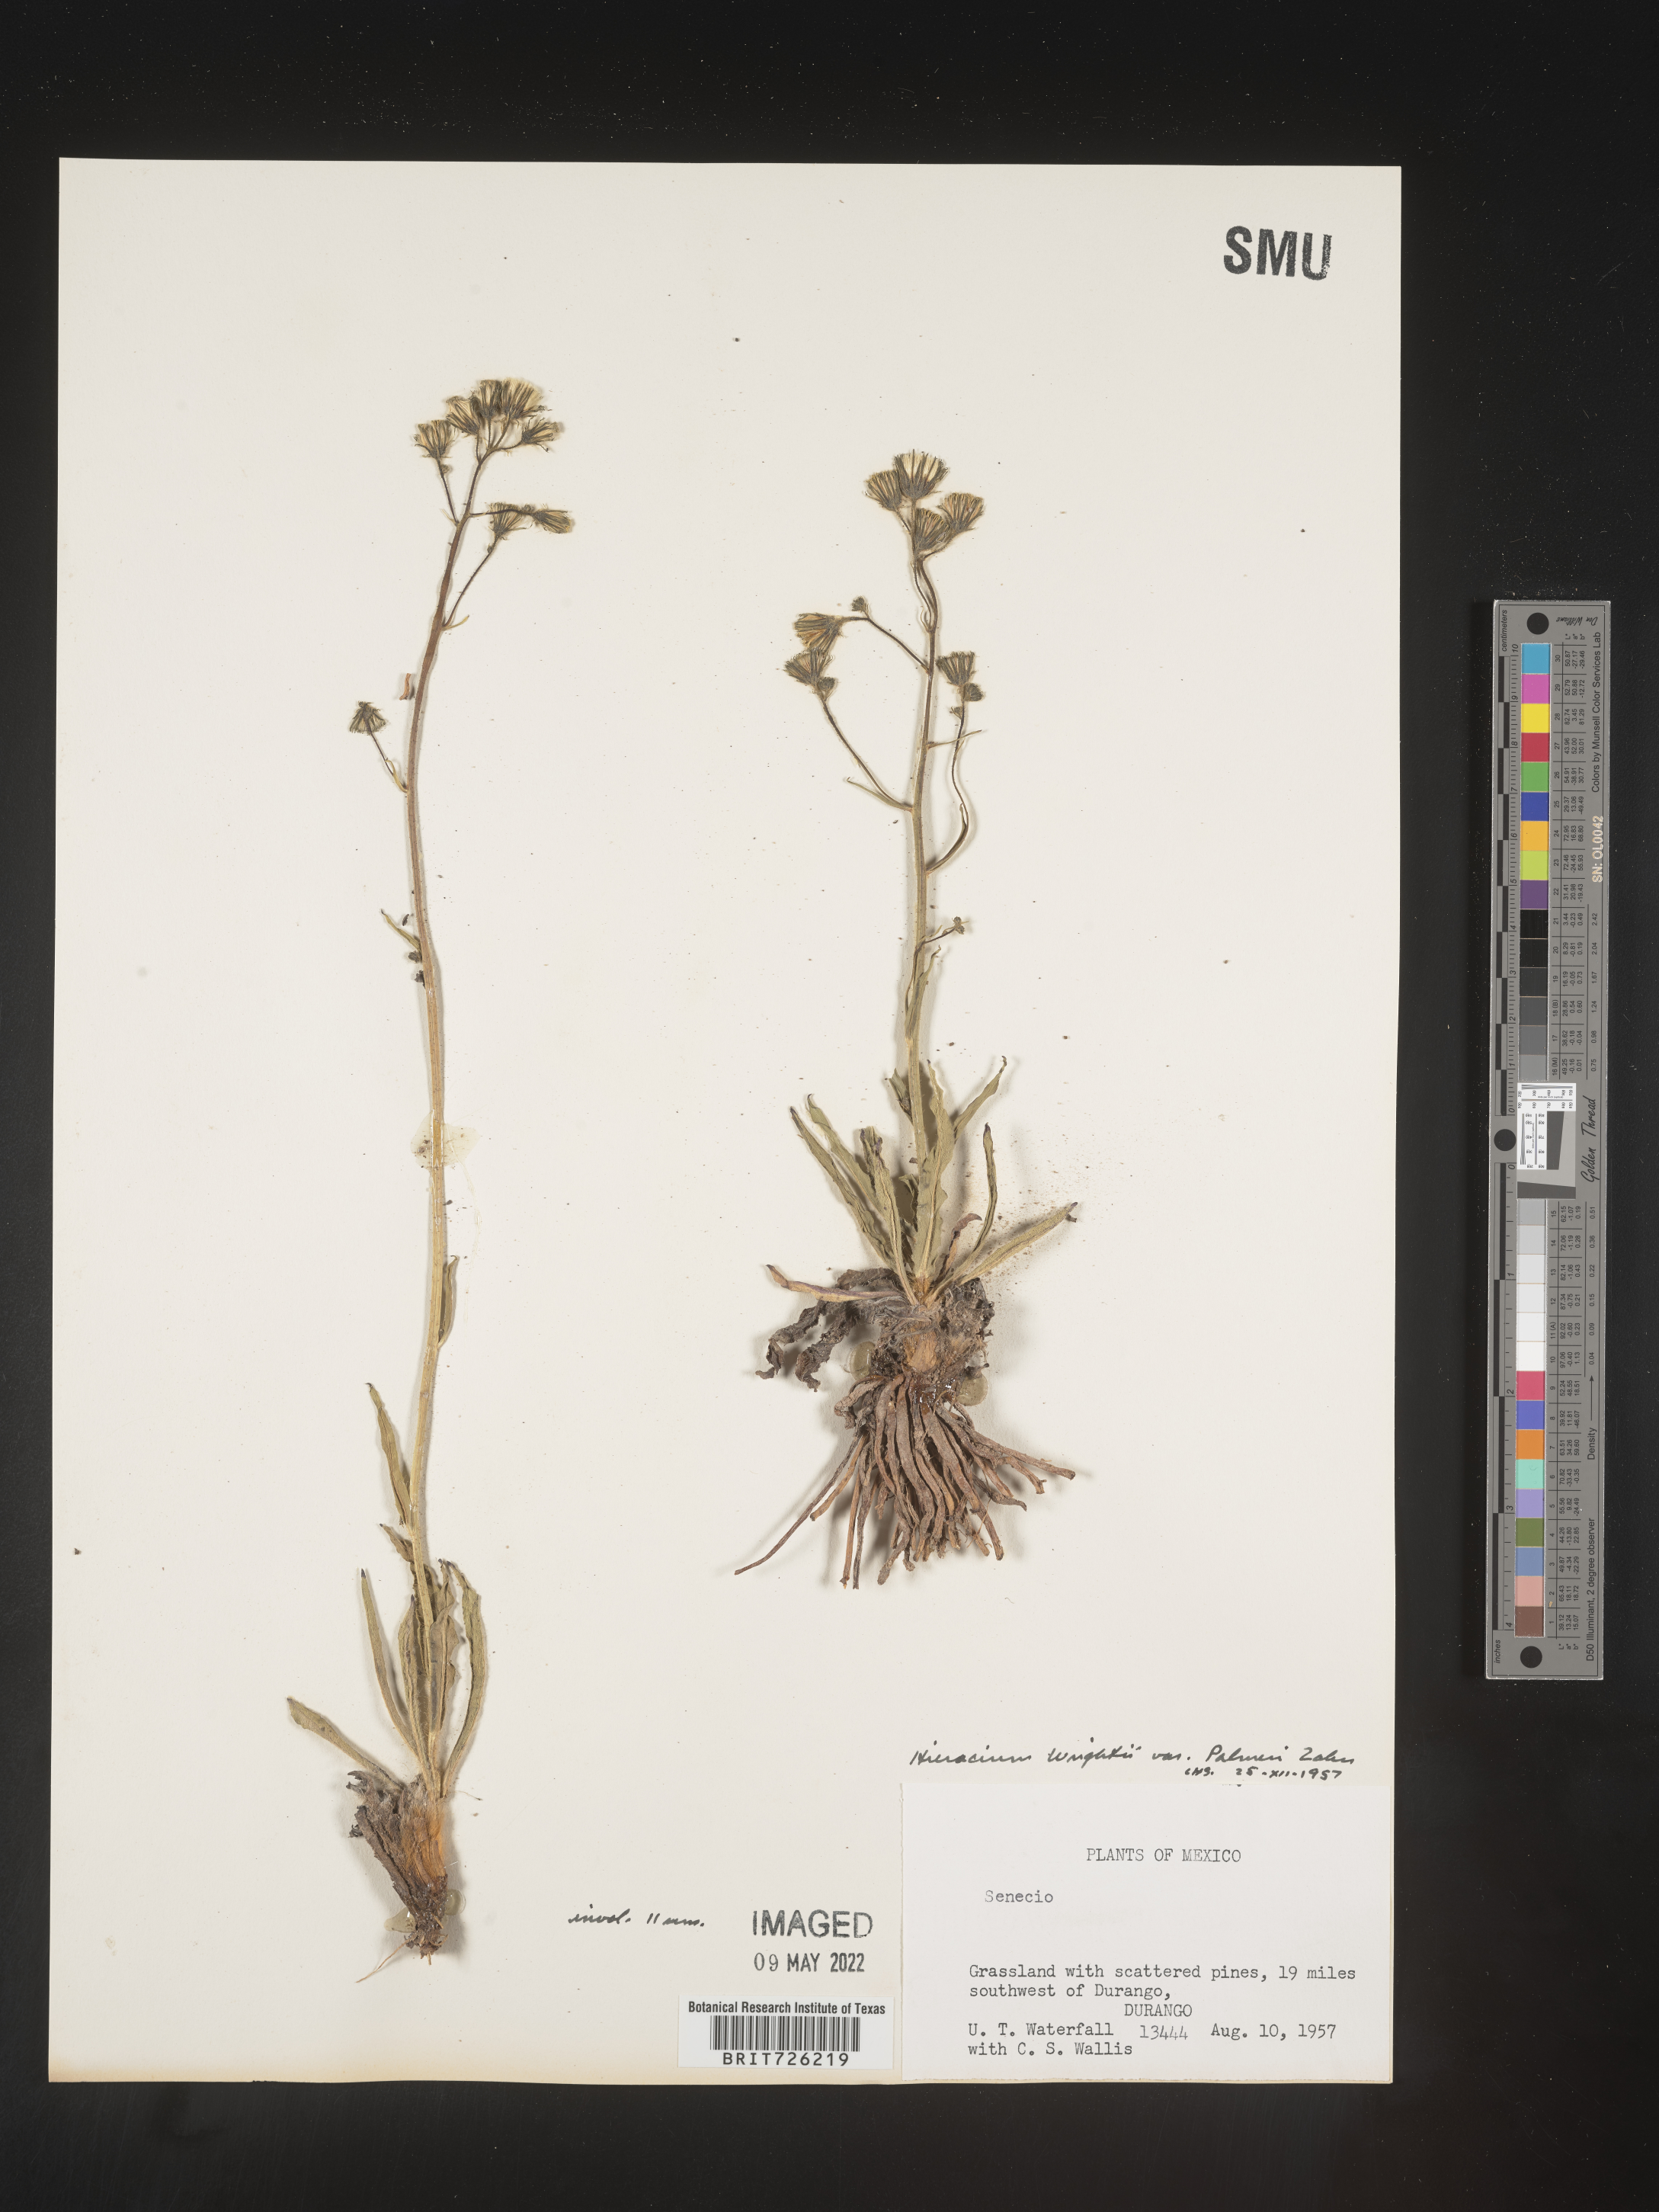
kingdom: Plantae
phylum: Tracheophyta
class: Magnoliopsida
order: Asterales
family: Asteraceae
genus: Hieracium
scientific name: Hieracium
